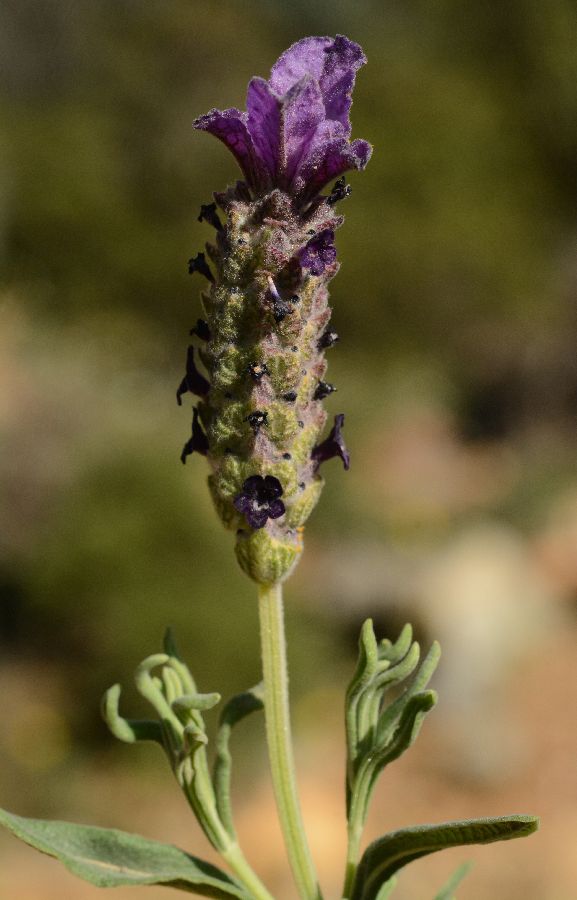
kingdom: Plantae
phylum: Tracheophyta
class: Magnoliopsida
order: Lamiales
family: Lamiaceae
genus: Lavandula
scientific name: Lavandula stoechas
